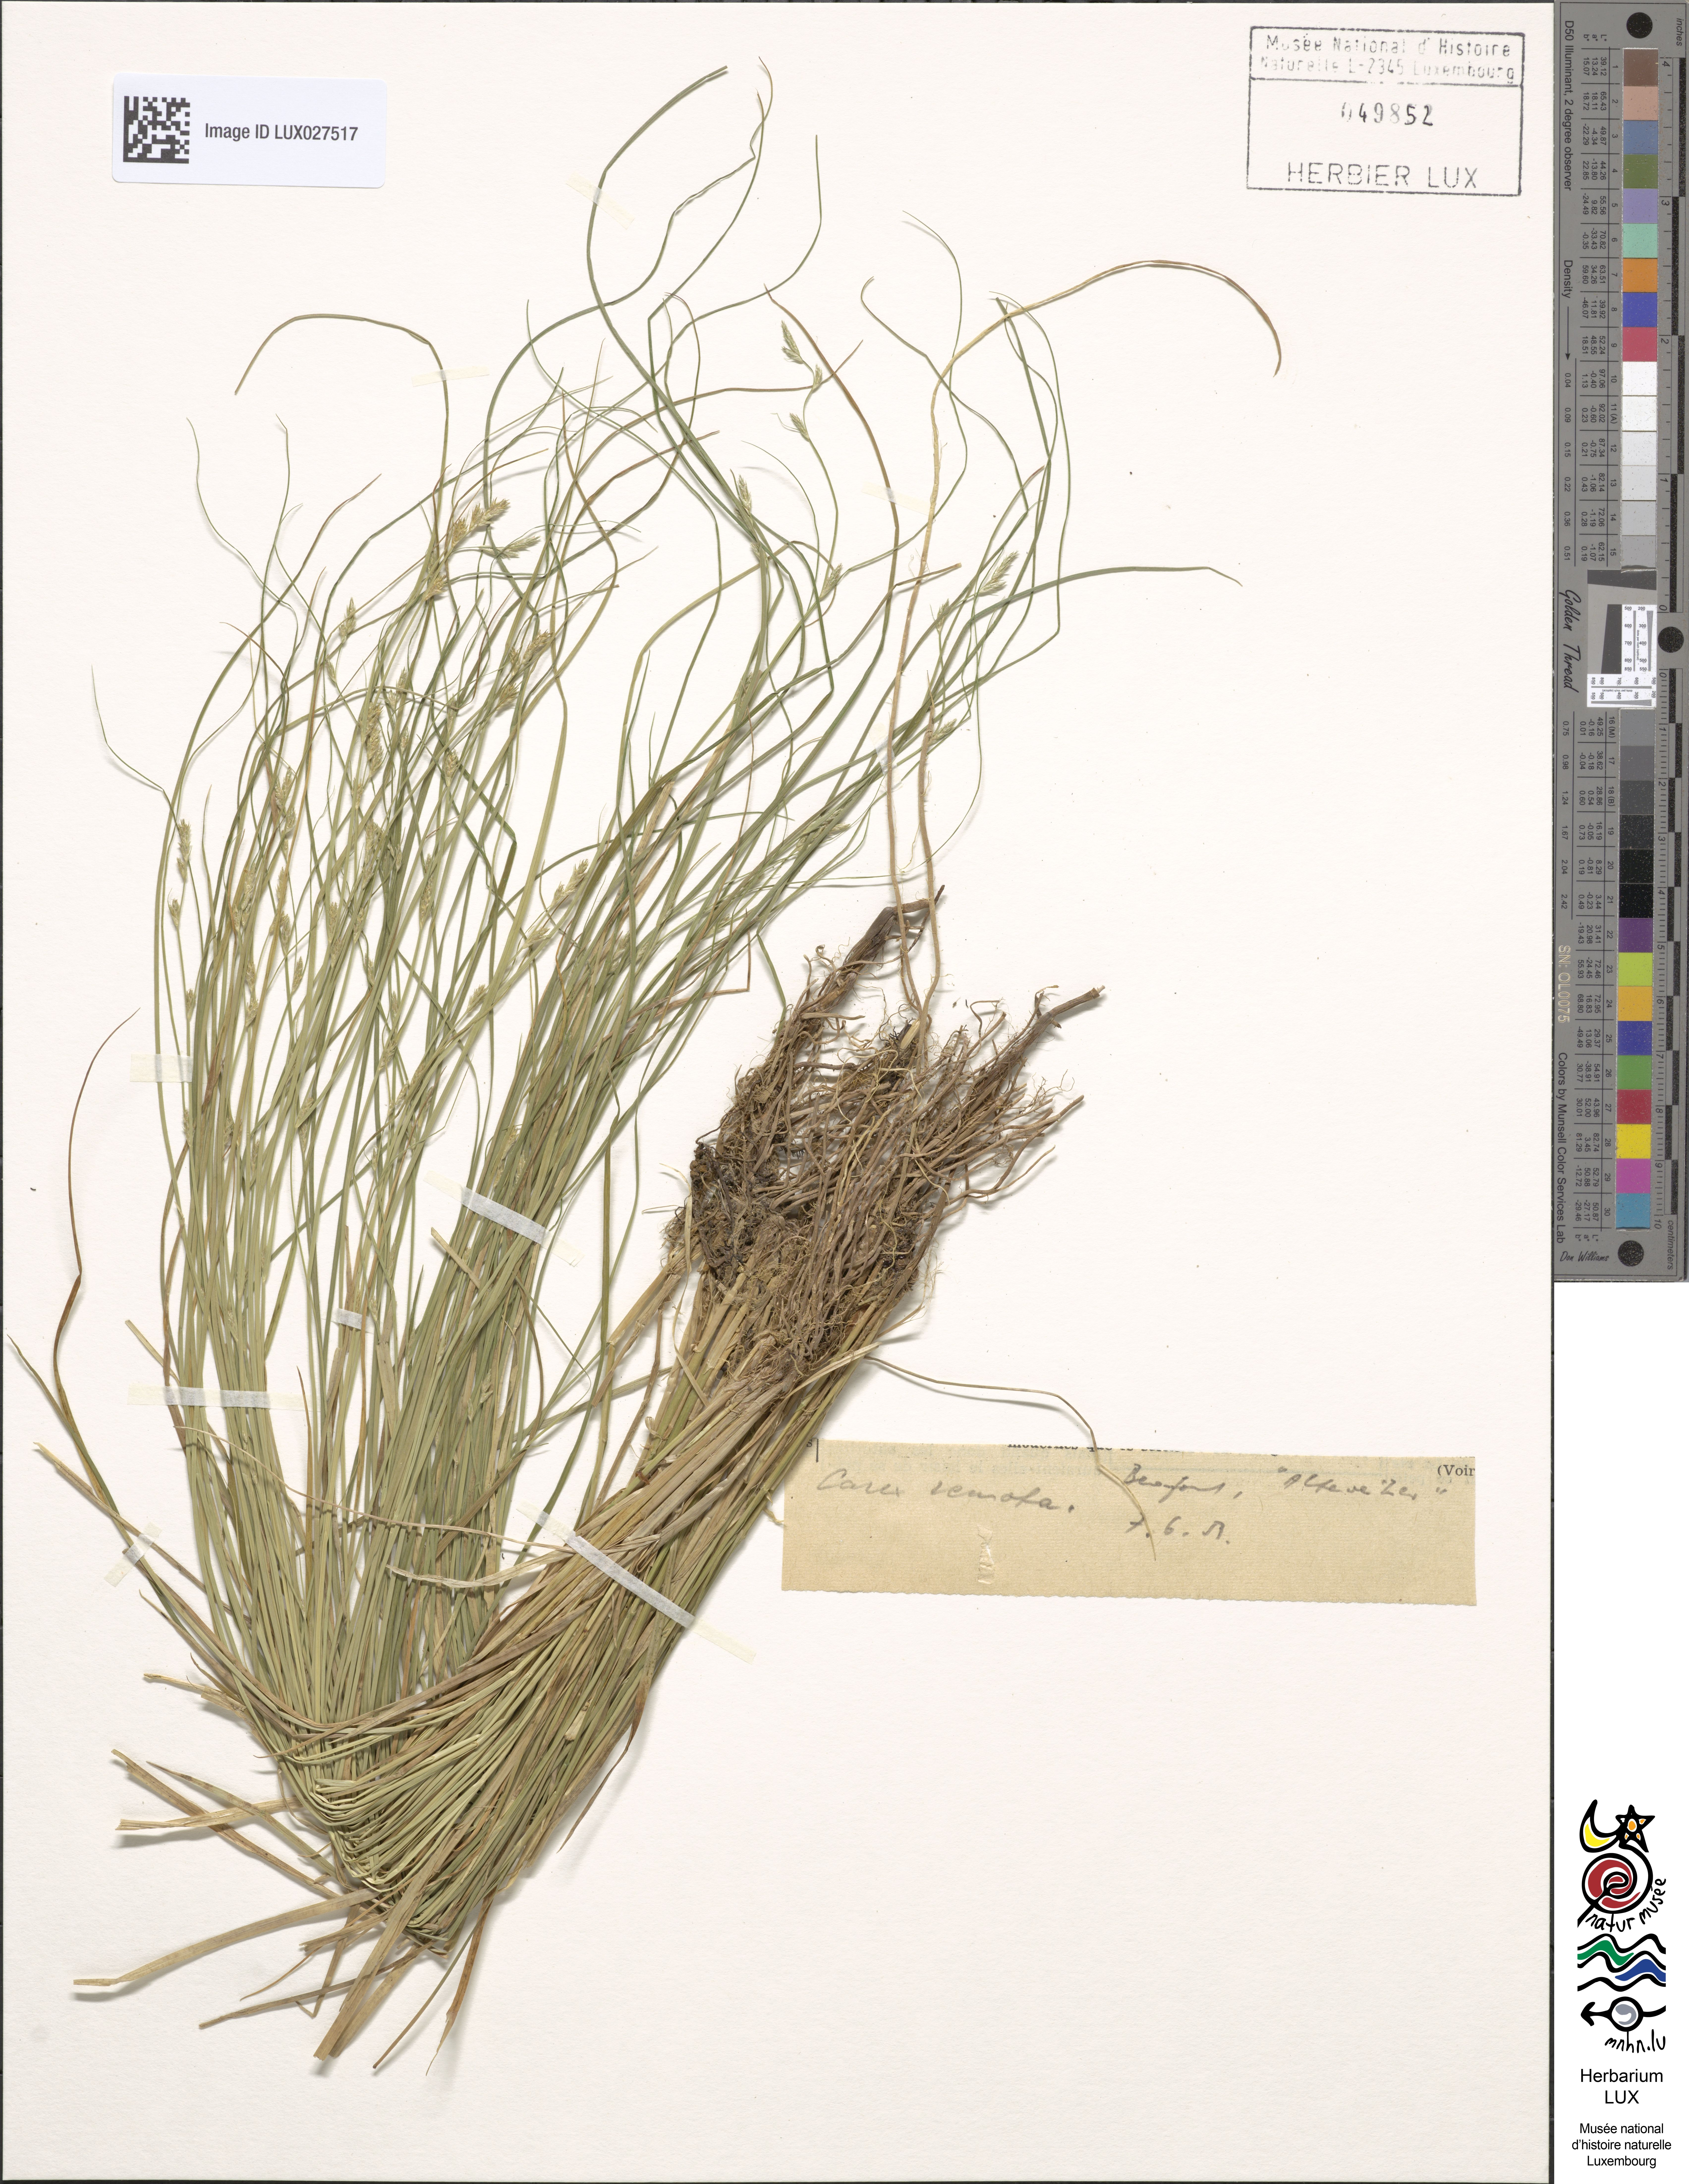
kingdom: Plantae
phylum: Tracheophyta
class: Liliopsida
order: Poales
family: Cyperaceae
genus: Carex
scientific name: Carex remota
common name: Remote sedge
